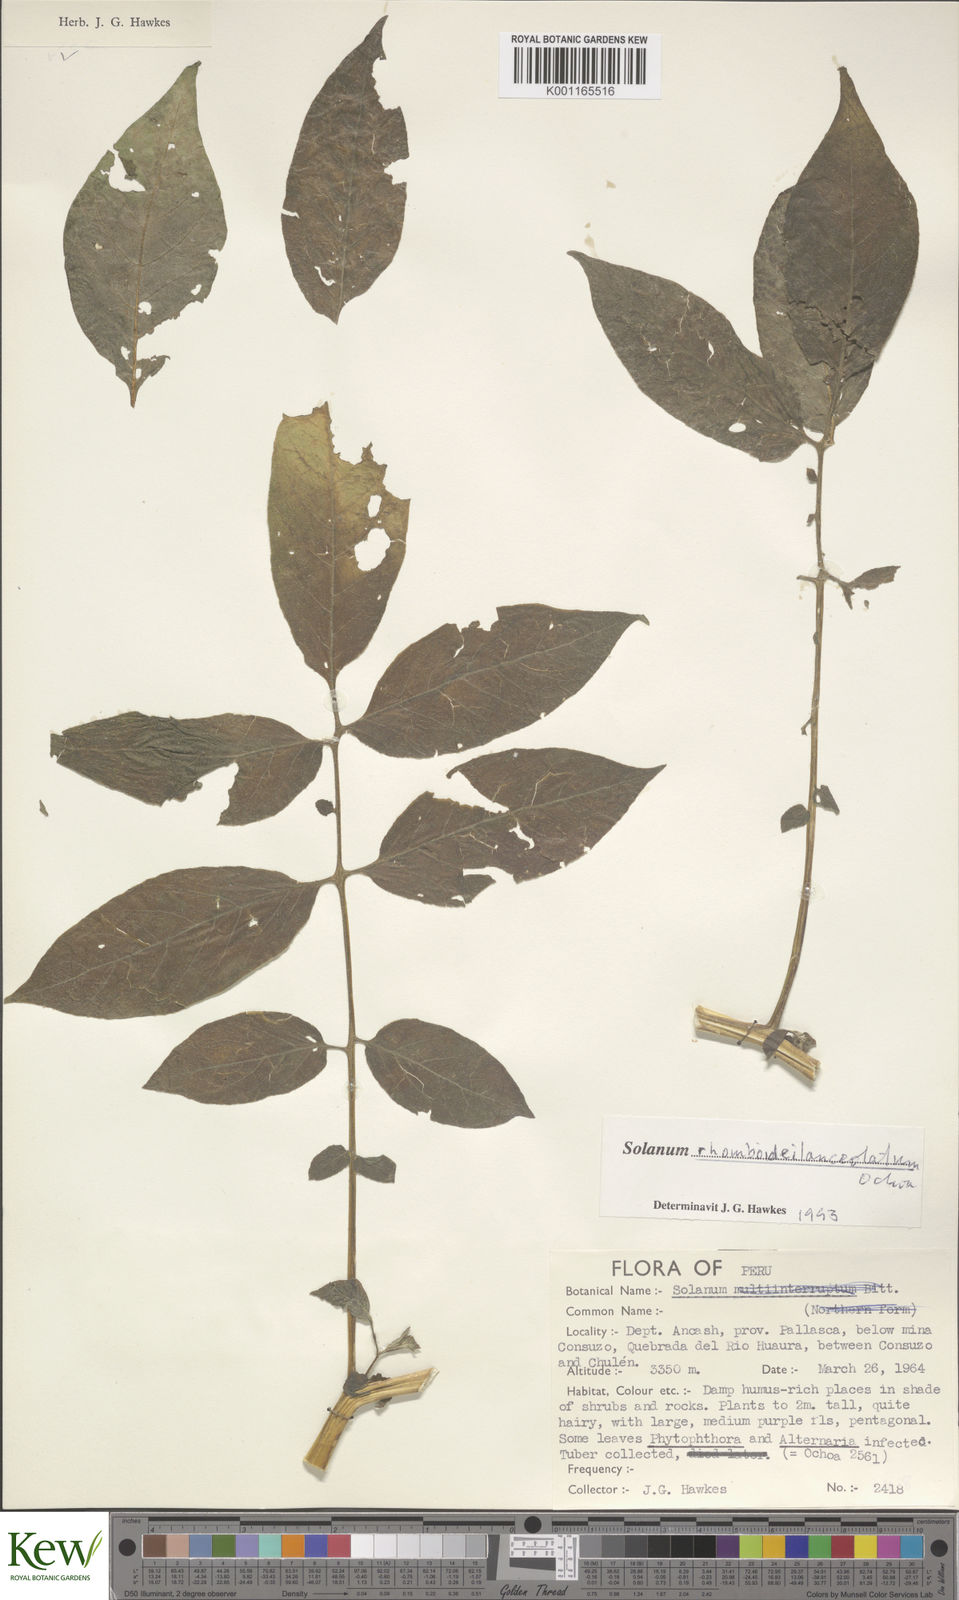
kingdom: Plantae
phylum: Tracheophyta
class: Magnoliopsida
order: Solanales
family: Solanaceae
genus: Solanum
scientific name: Solanum rhomboideilanceolatum
